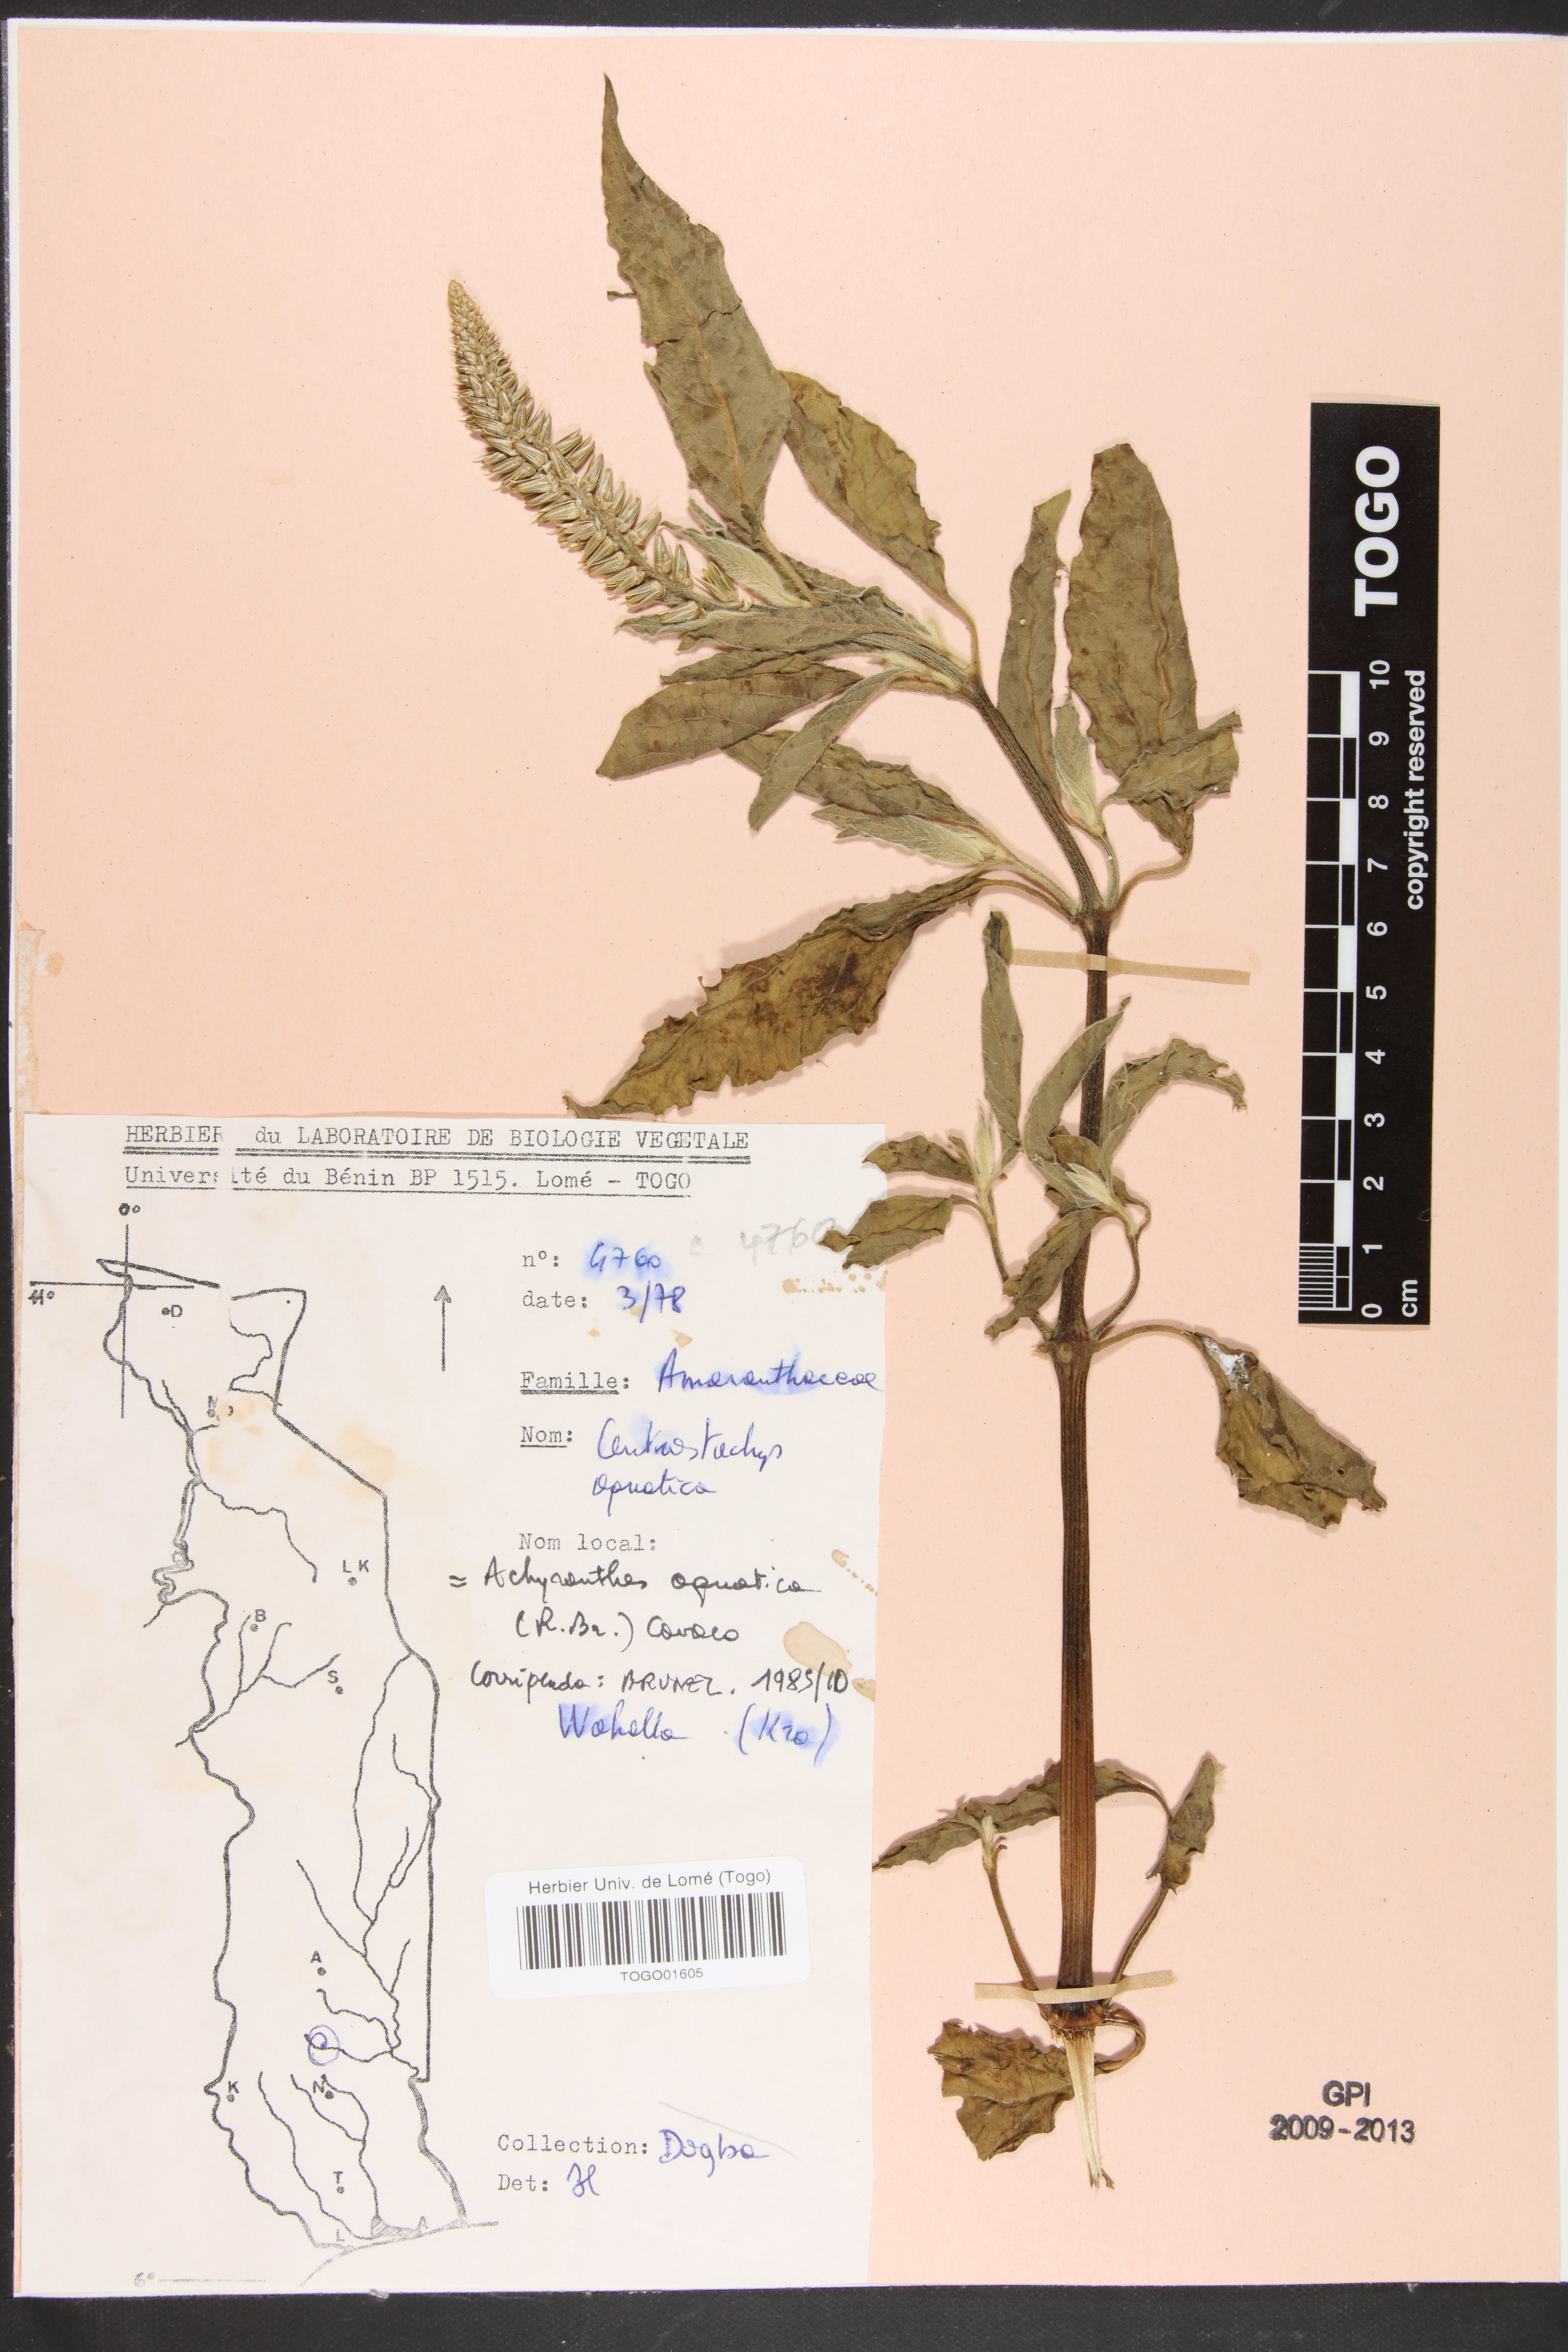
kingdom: Plantae
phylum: Tracheophyta
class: Magnoliopsida
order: Caryophyllales
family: Amaranthaceae
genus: Centrostachys
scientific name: Centrostachys aquatica
